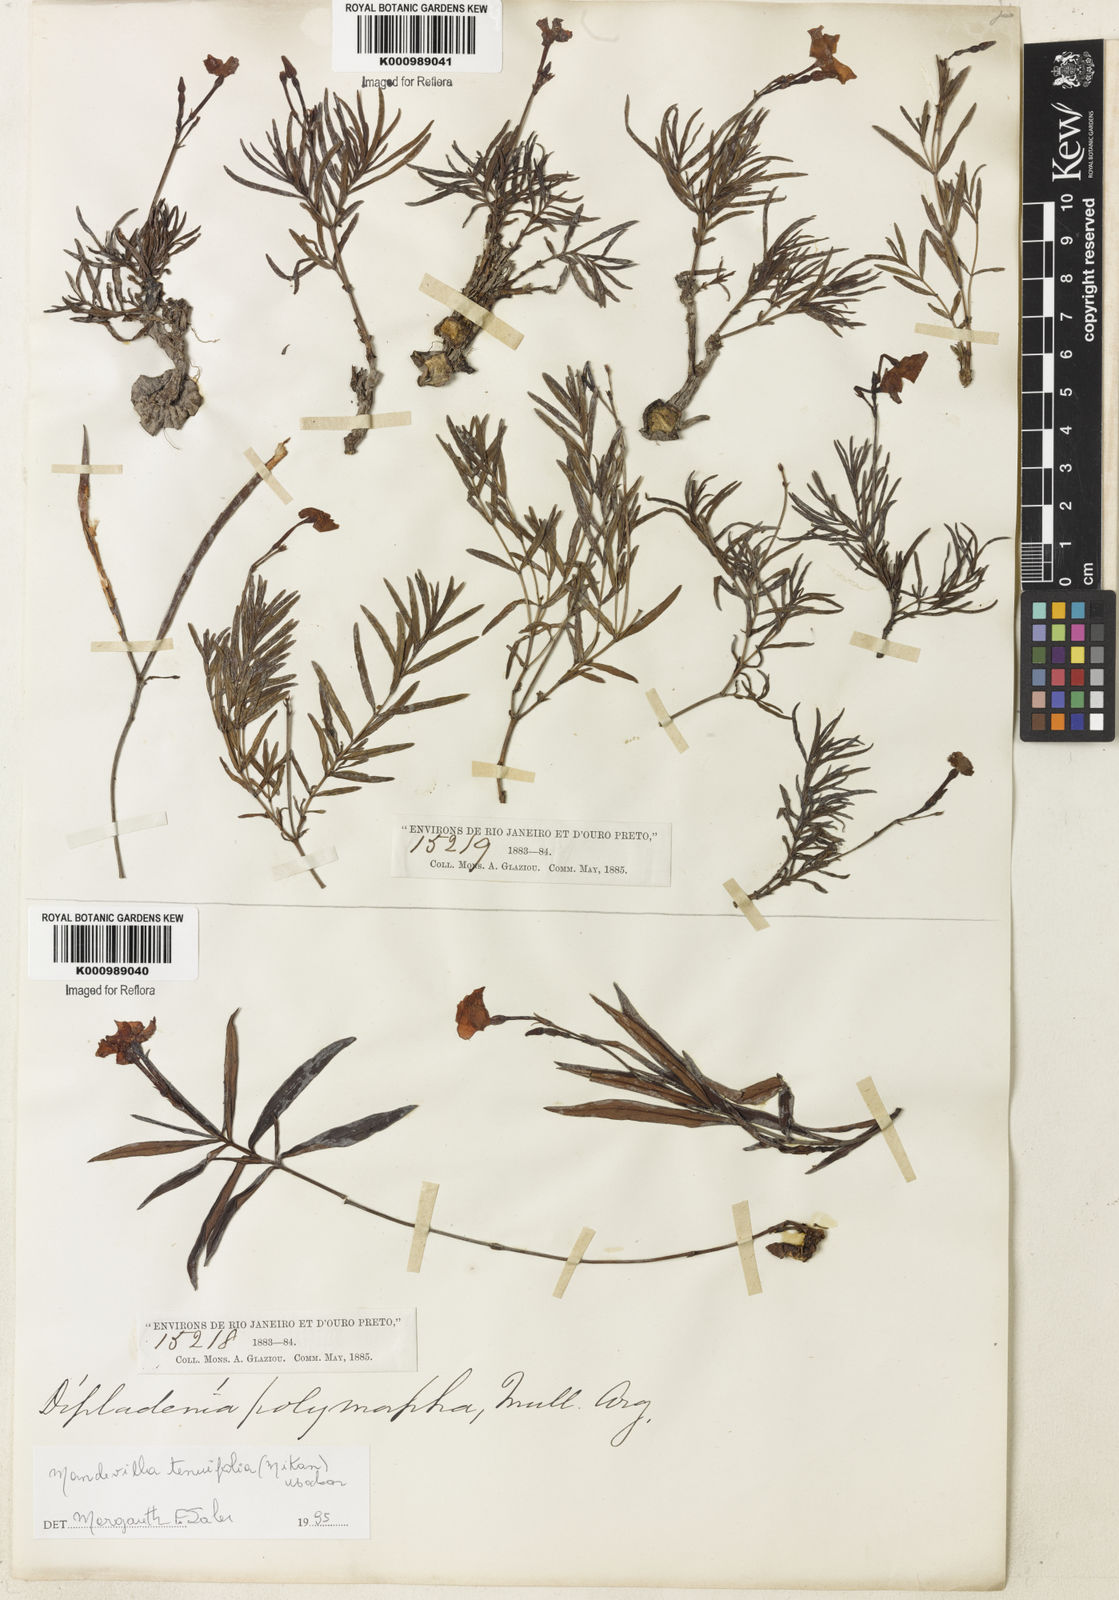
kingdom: Plantae
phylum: Tracheophyta
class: Magnoliopsida
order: Gentianales
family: Apocynaceae
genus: Mandevilla
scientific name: Mandevilla tenuifolia
